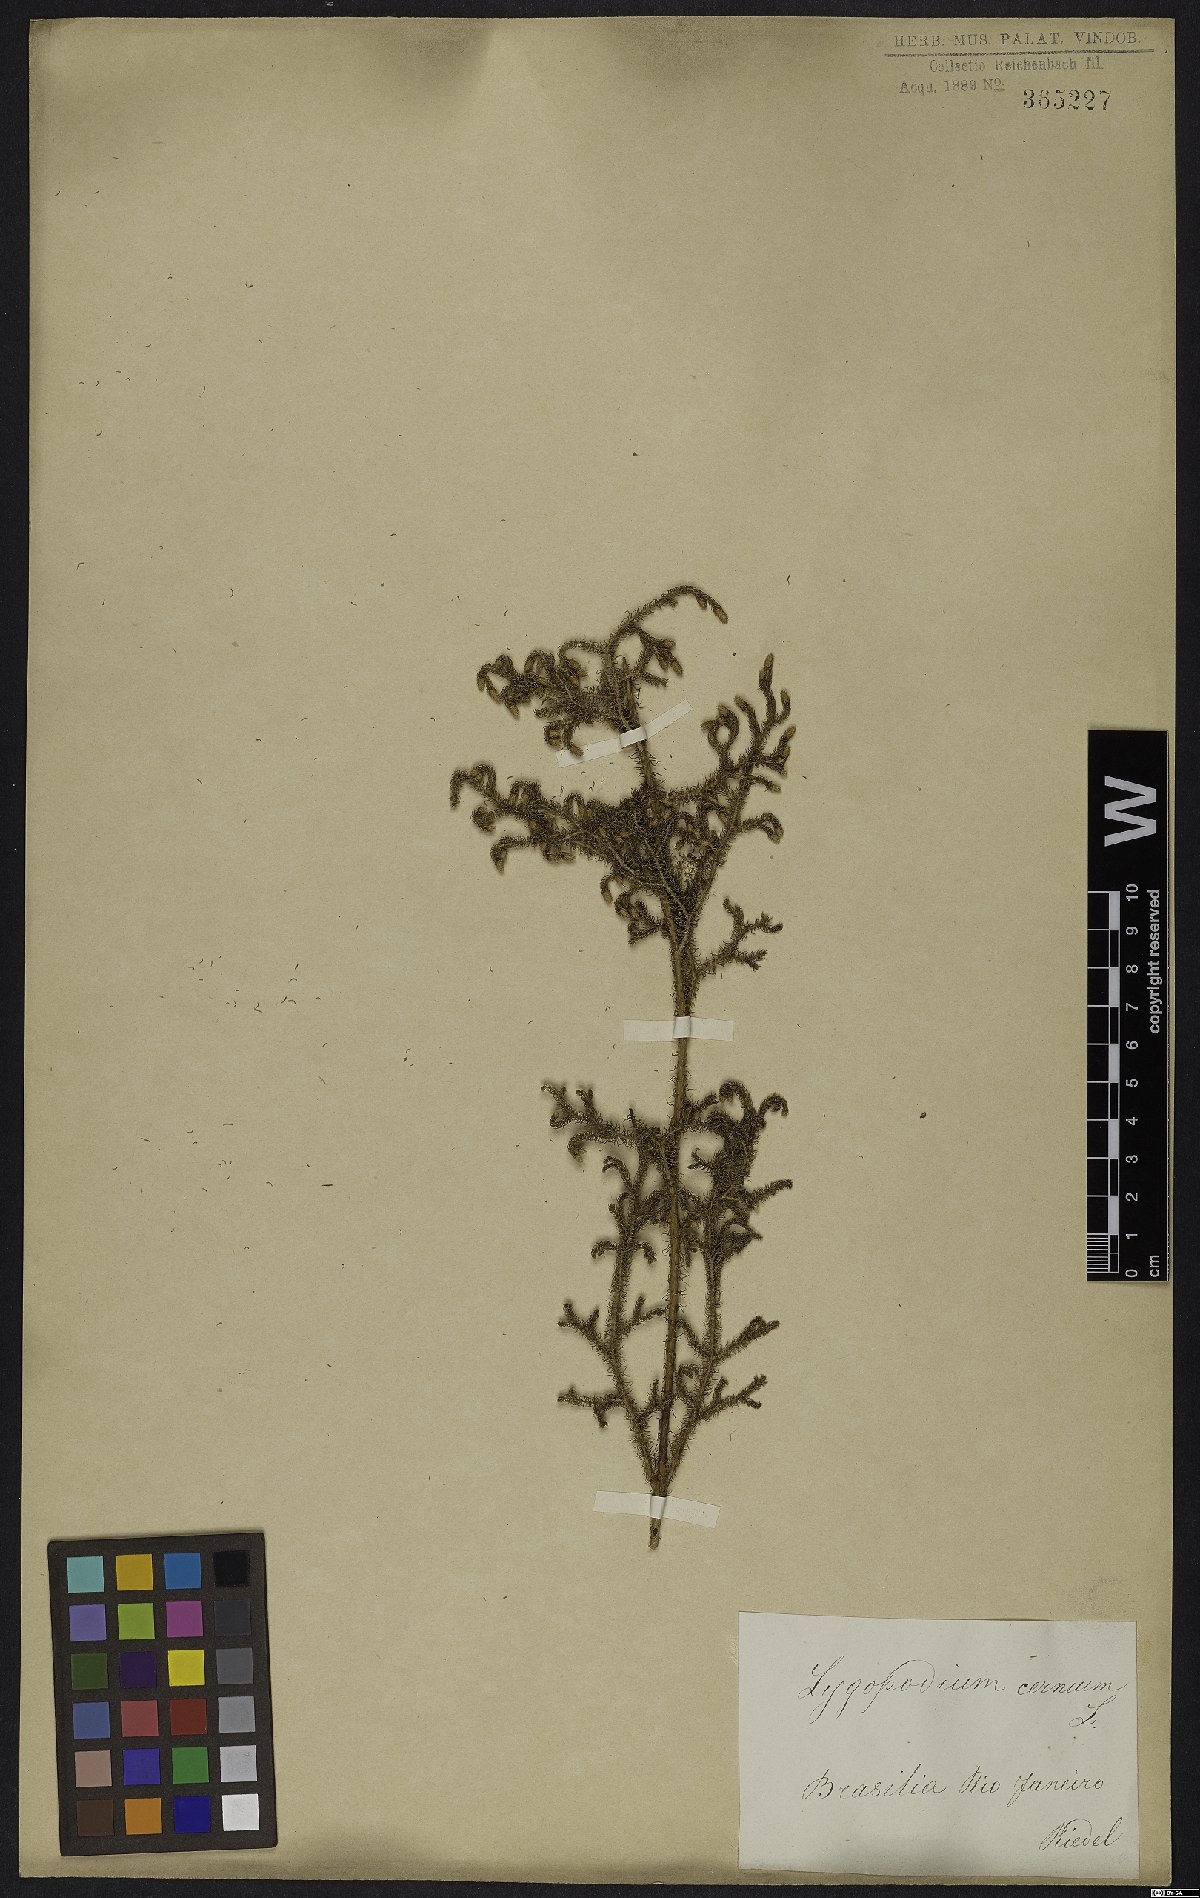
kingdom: Plantae
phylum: Tracheophyta
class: Lycopodiopsida
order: Lycopodiales
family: Lycopodiaceae
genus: Palhinhaea
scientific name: Palhinhaea cernua
